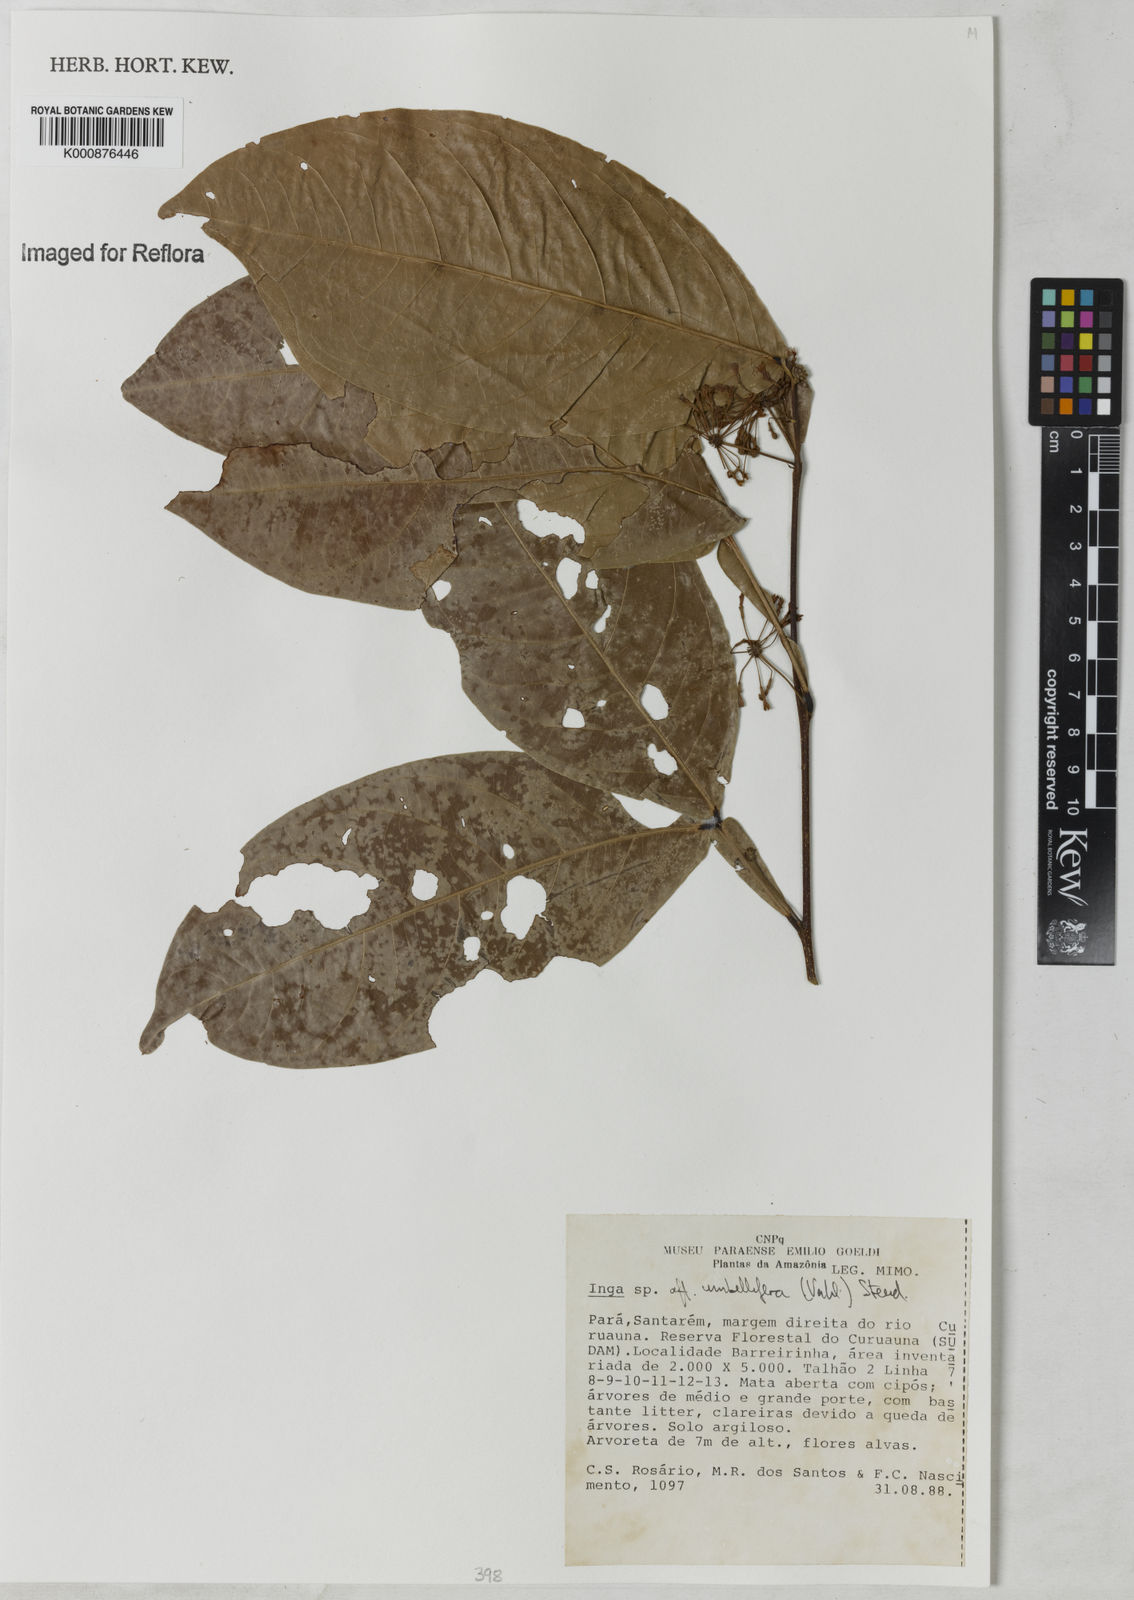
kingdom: Plantae
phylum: Tracheophyta
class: Magnoliopsida
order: Fabales
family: Fabaceae
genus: Inga
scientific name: Inga umbellifera
